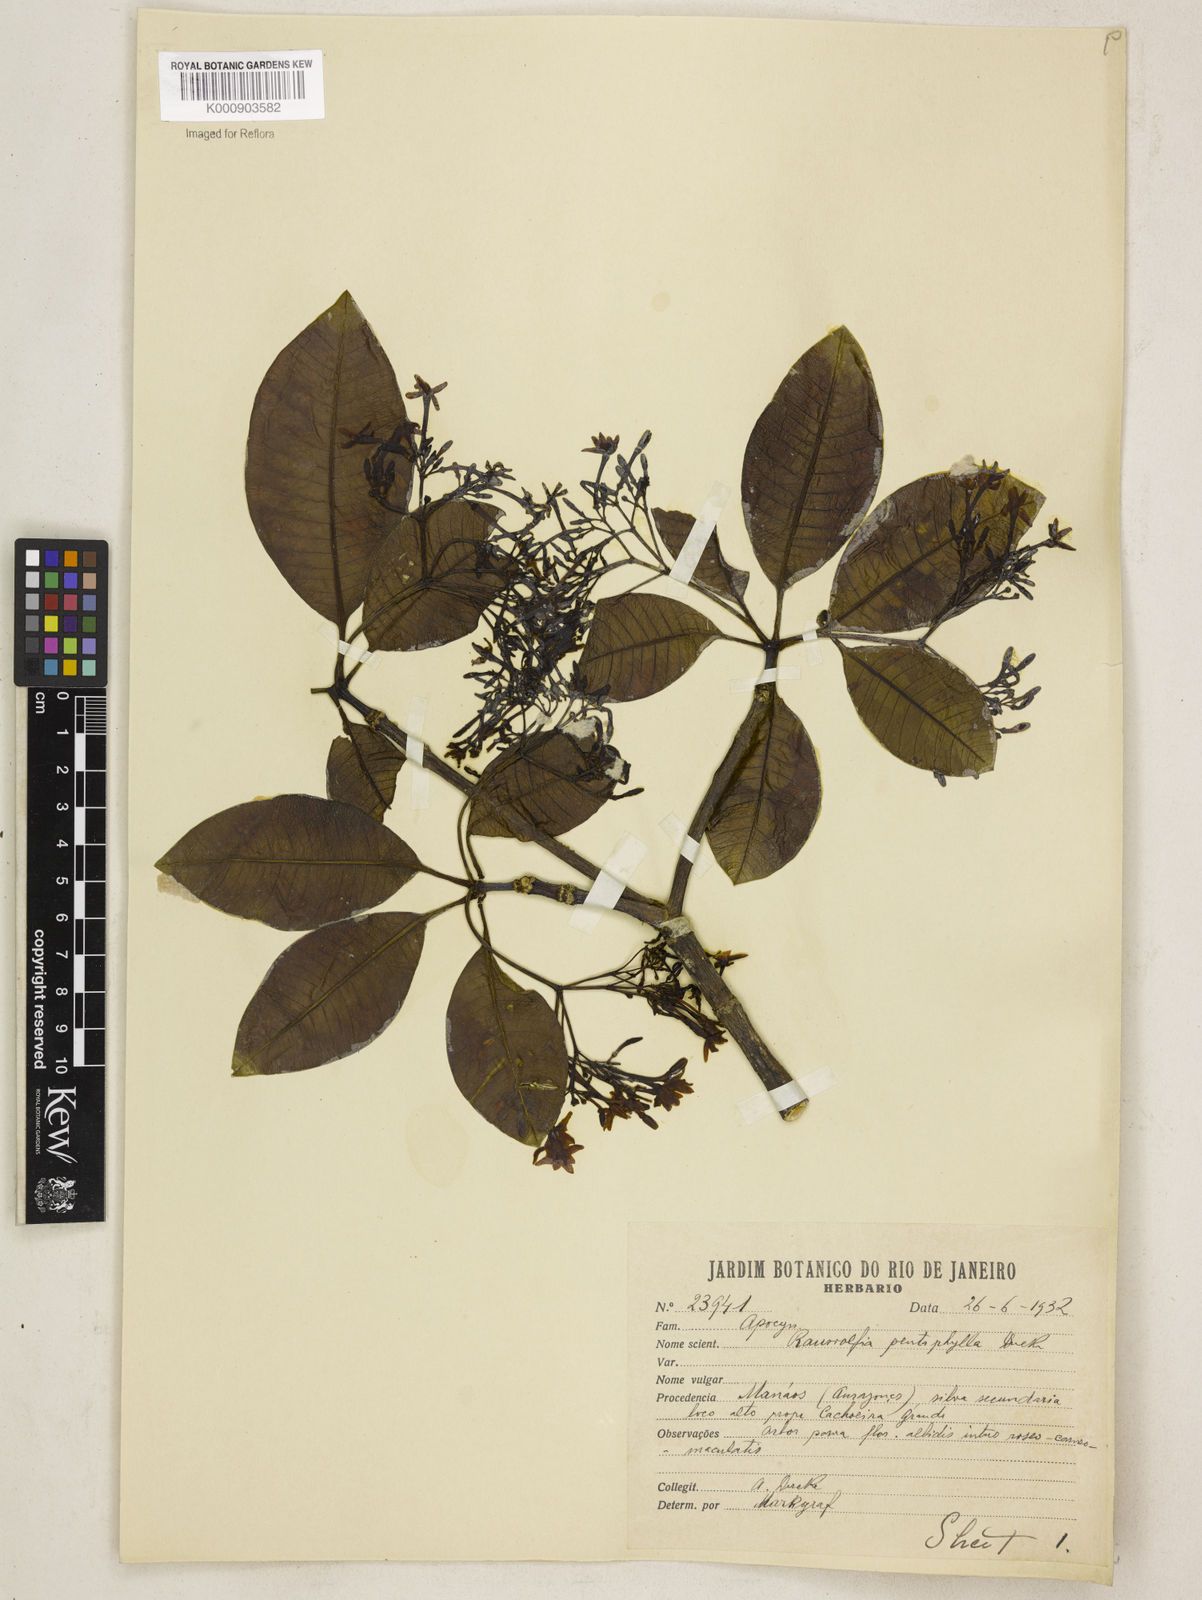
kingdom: Plantae
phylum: Tracheophyta
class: Magnoliopsida
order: Gentianales
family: Apocynaceae
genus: Rauvolfia
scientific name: Rauvolfia pentaphylla
